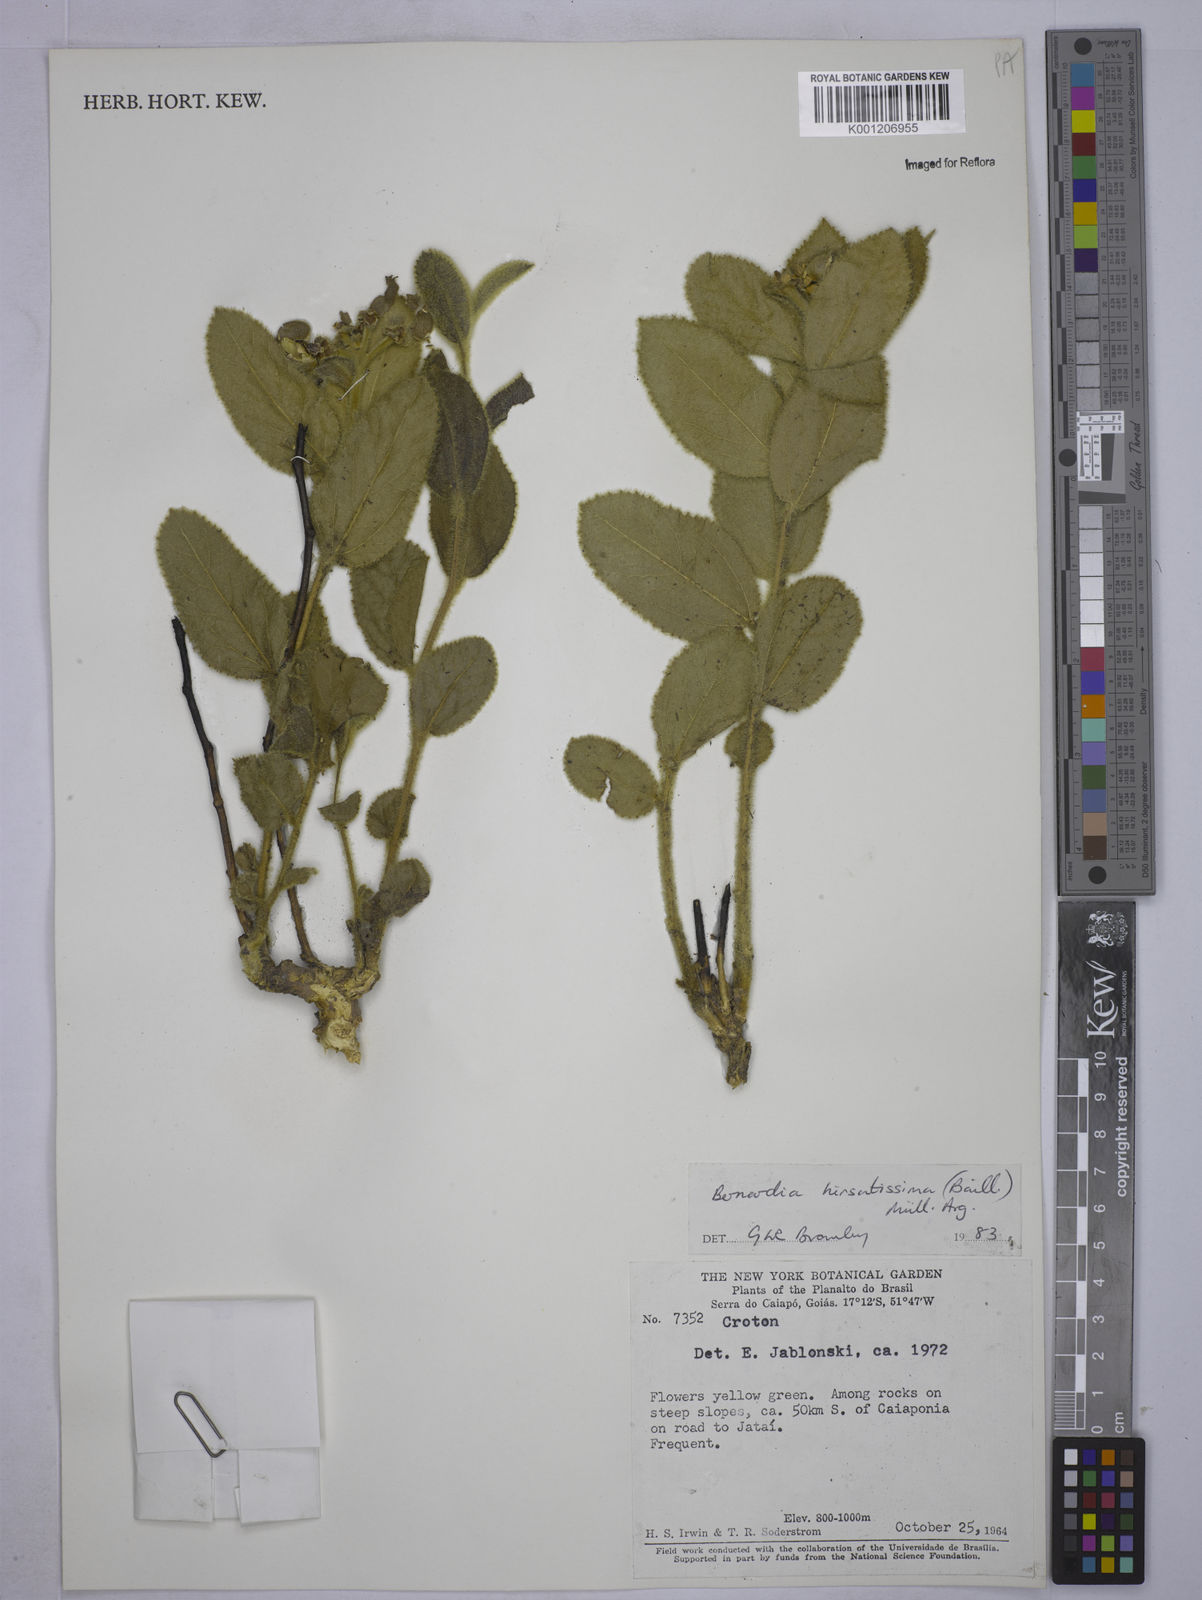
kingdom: Plantae
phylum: Tracheophyta
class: Magnoliopsida
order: Malpighiales
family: Euphorbiaceae
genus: Bernardia
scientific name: Bernardia
